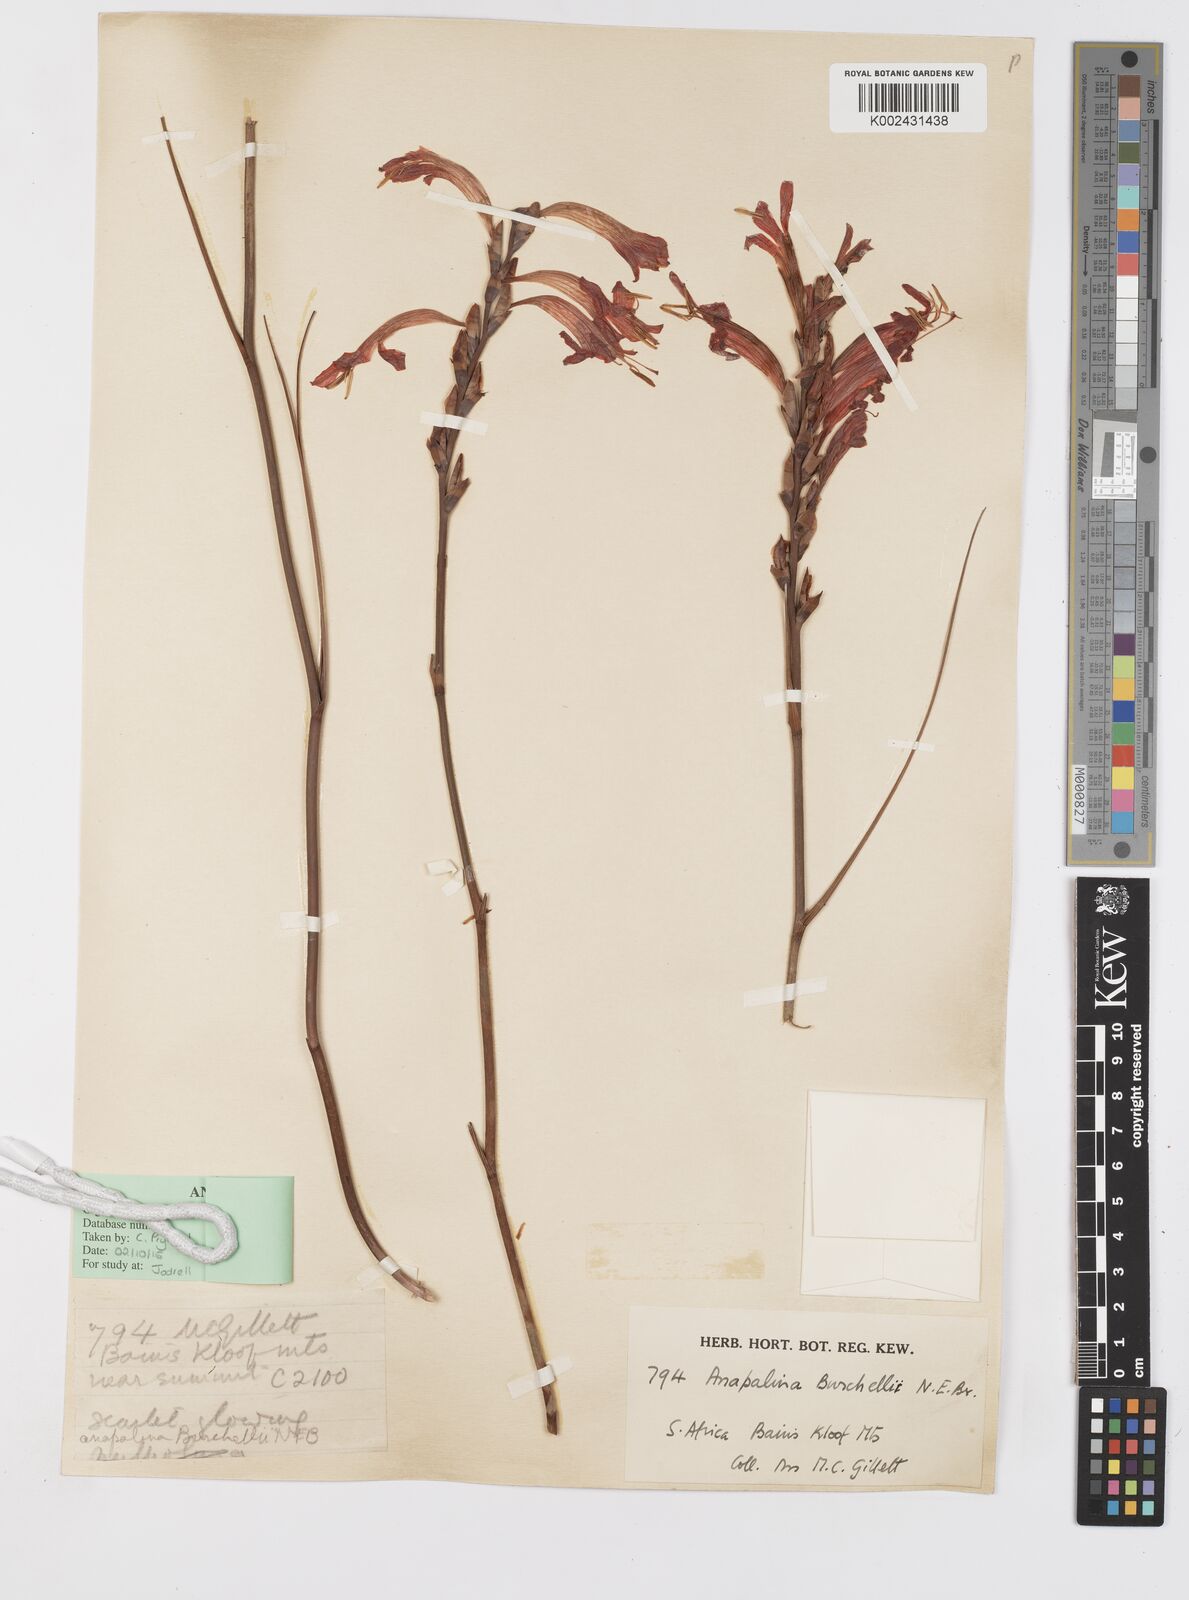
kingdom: Plantae
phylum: Tracheophyta
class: Liliopsida
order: Asparagales
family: Iridaceae
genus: Tritoniopsis
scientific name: Tritoniopsis triticea
